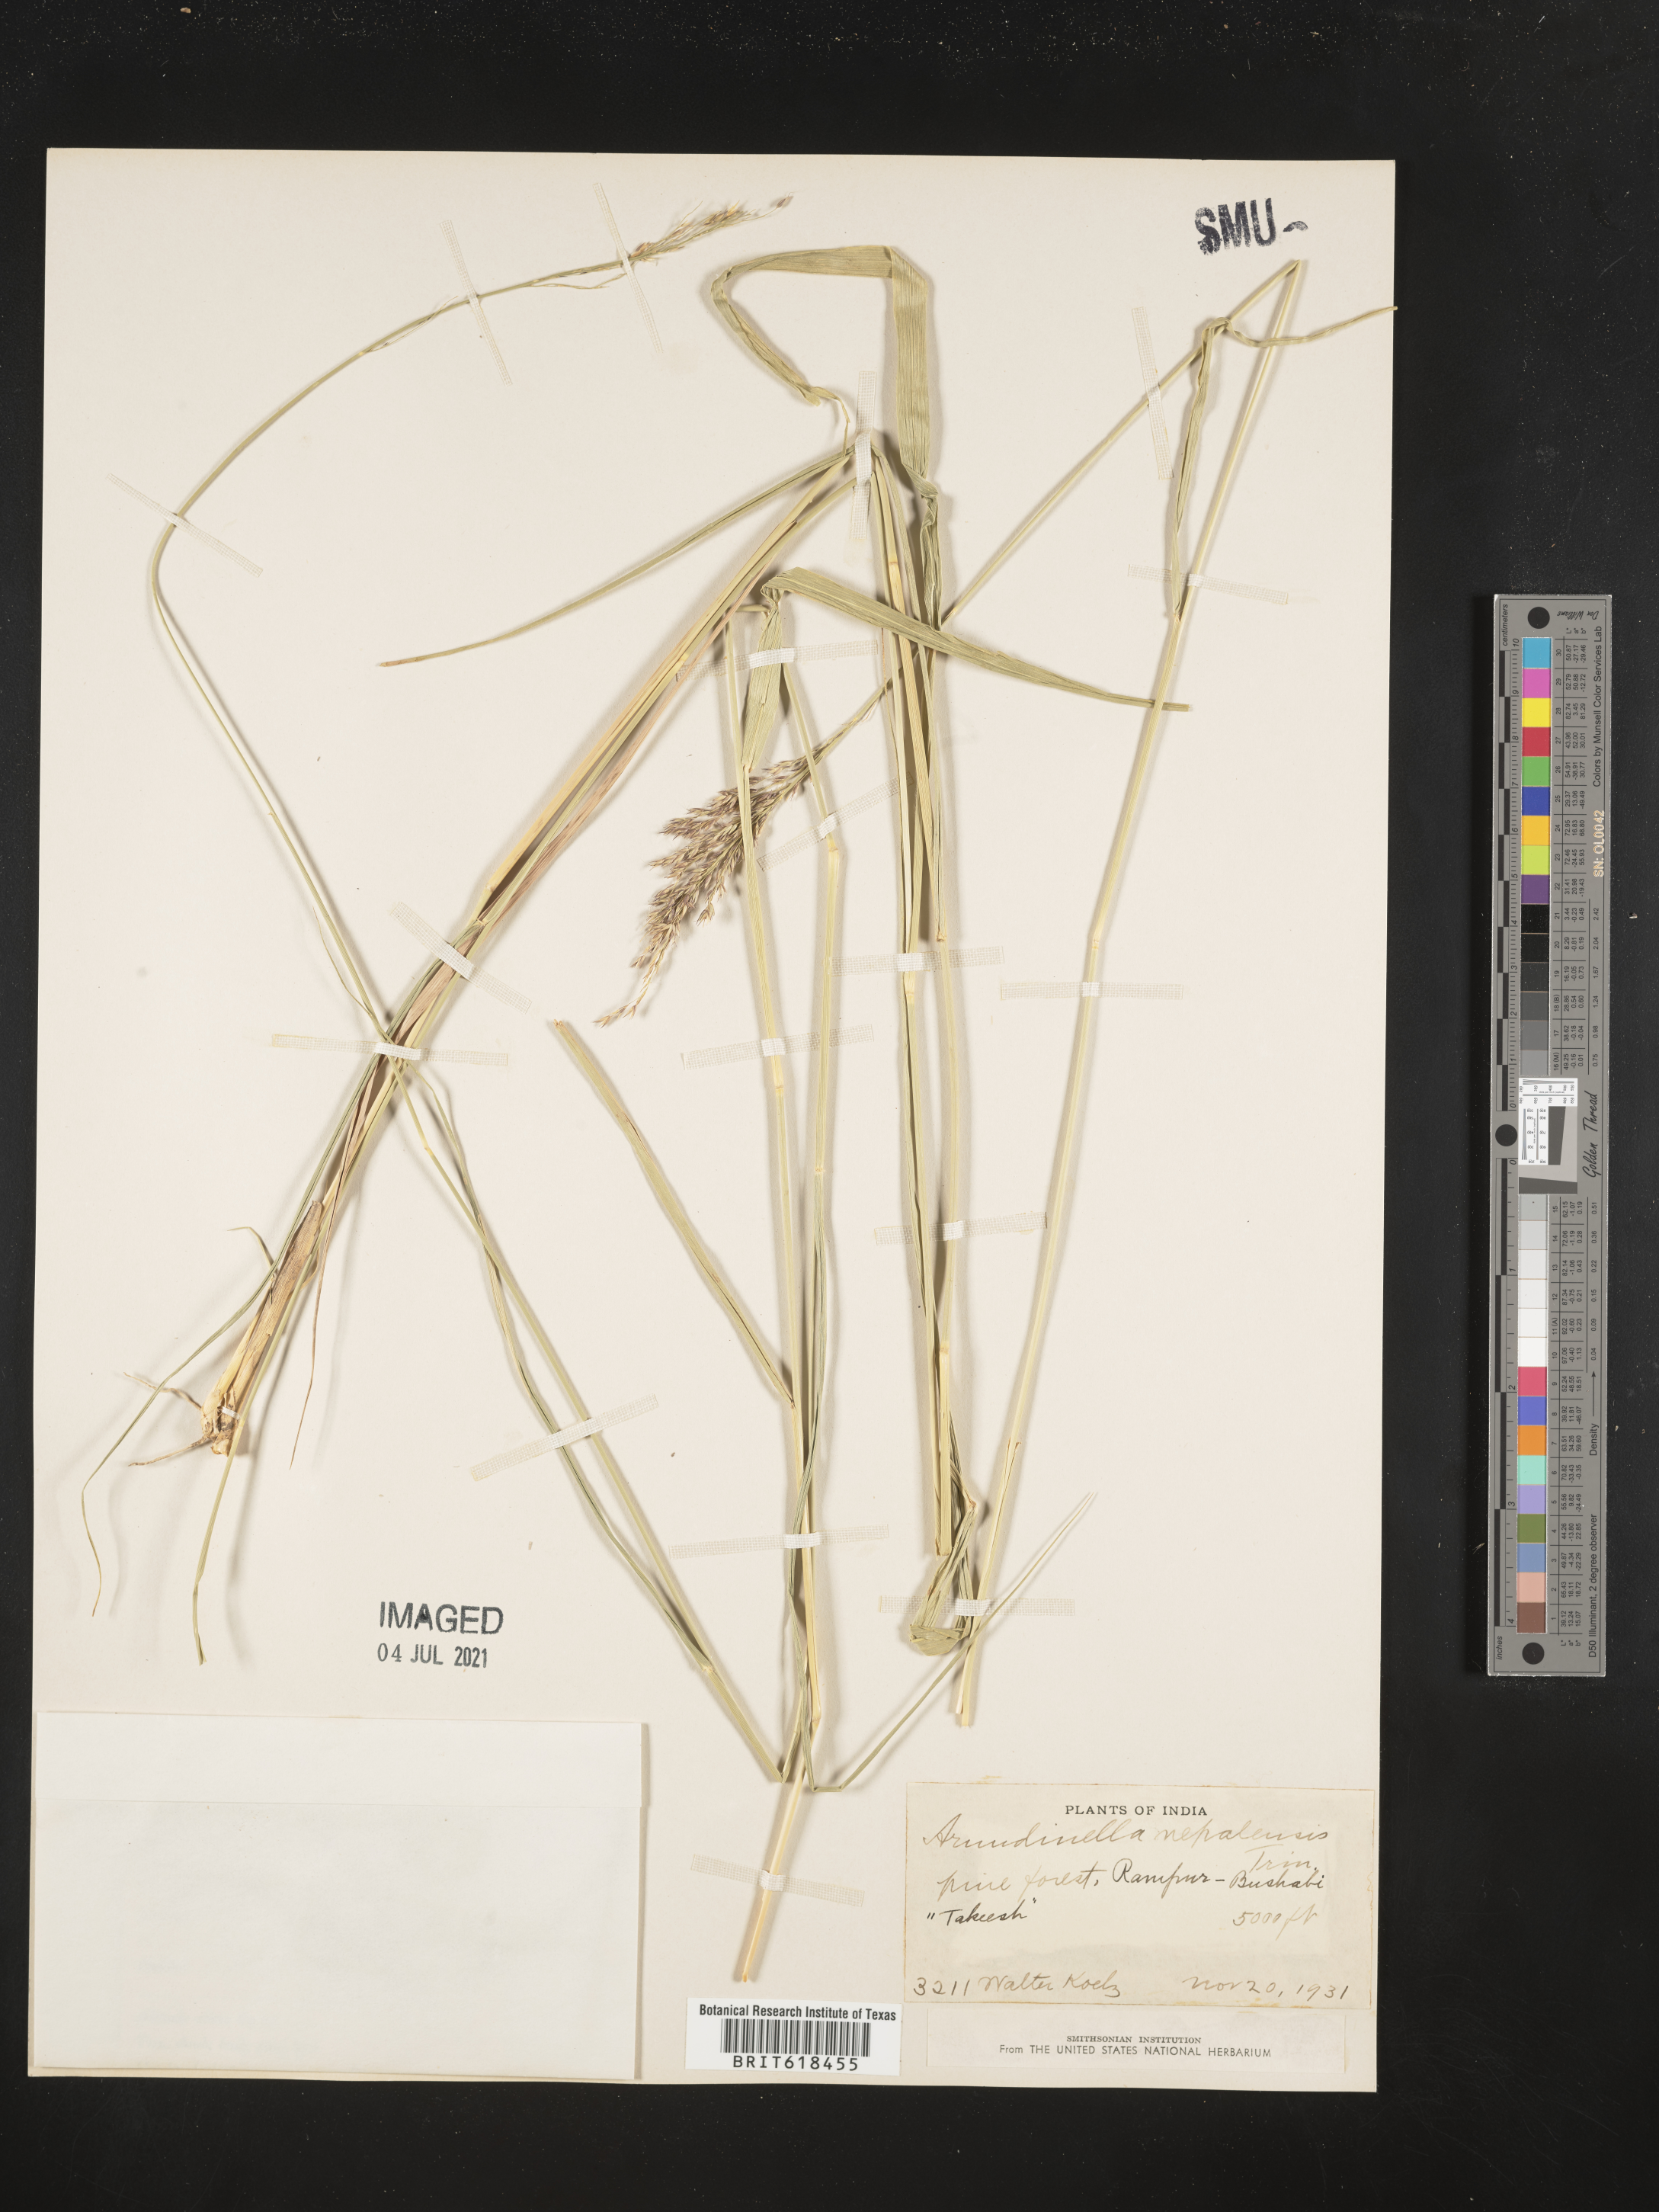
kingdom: Plantae
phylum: Tracheophyta
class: Liliopsida
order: Poales
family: Poaceae
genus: Arundinella
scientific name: Arundinella nepalensis
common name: Reed grass
